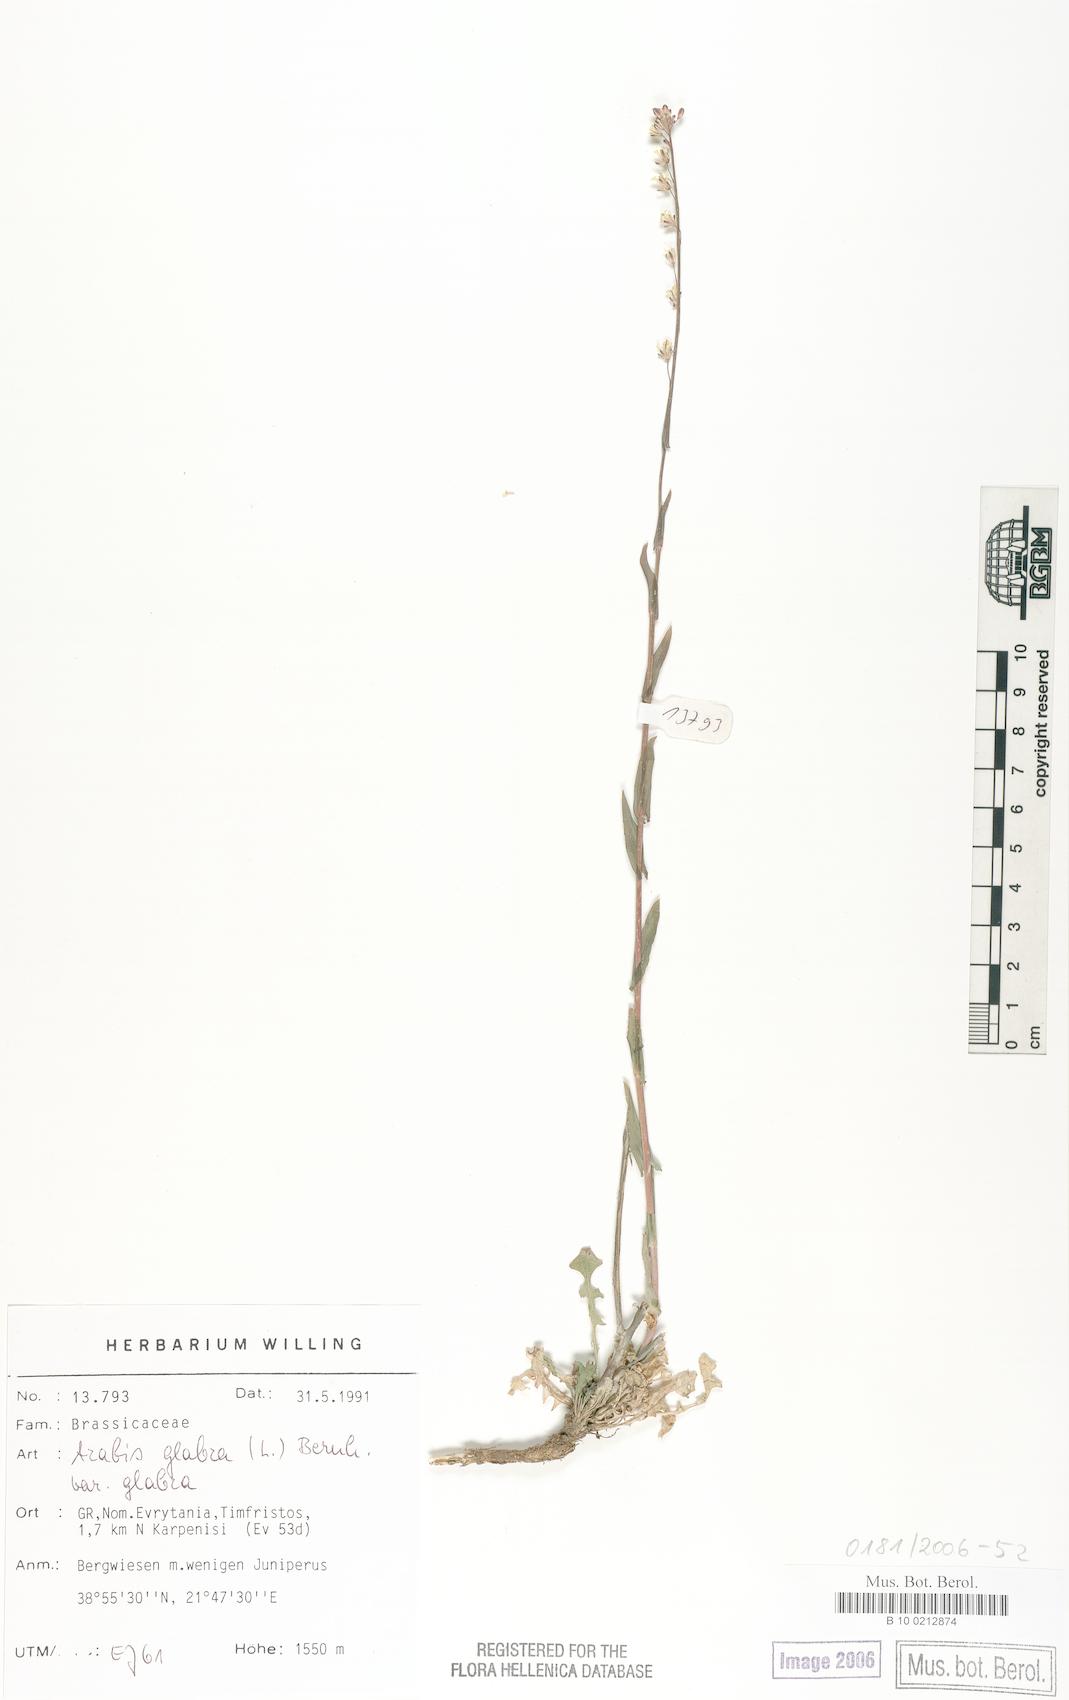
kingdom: Plantae
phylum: Tracheophyta
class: Magnoliopsida
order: Brassicales
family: Brassicaceae
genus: Turritis
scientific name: Turritis glabra
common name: Tower rockcress
